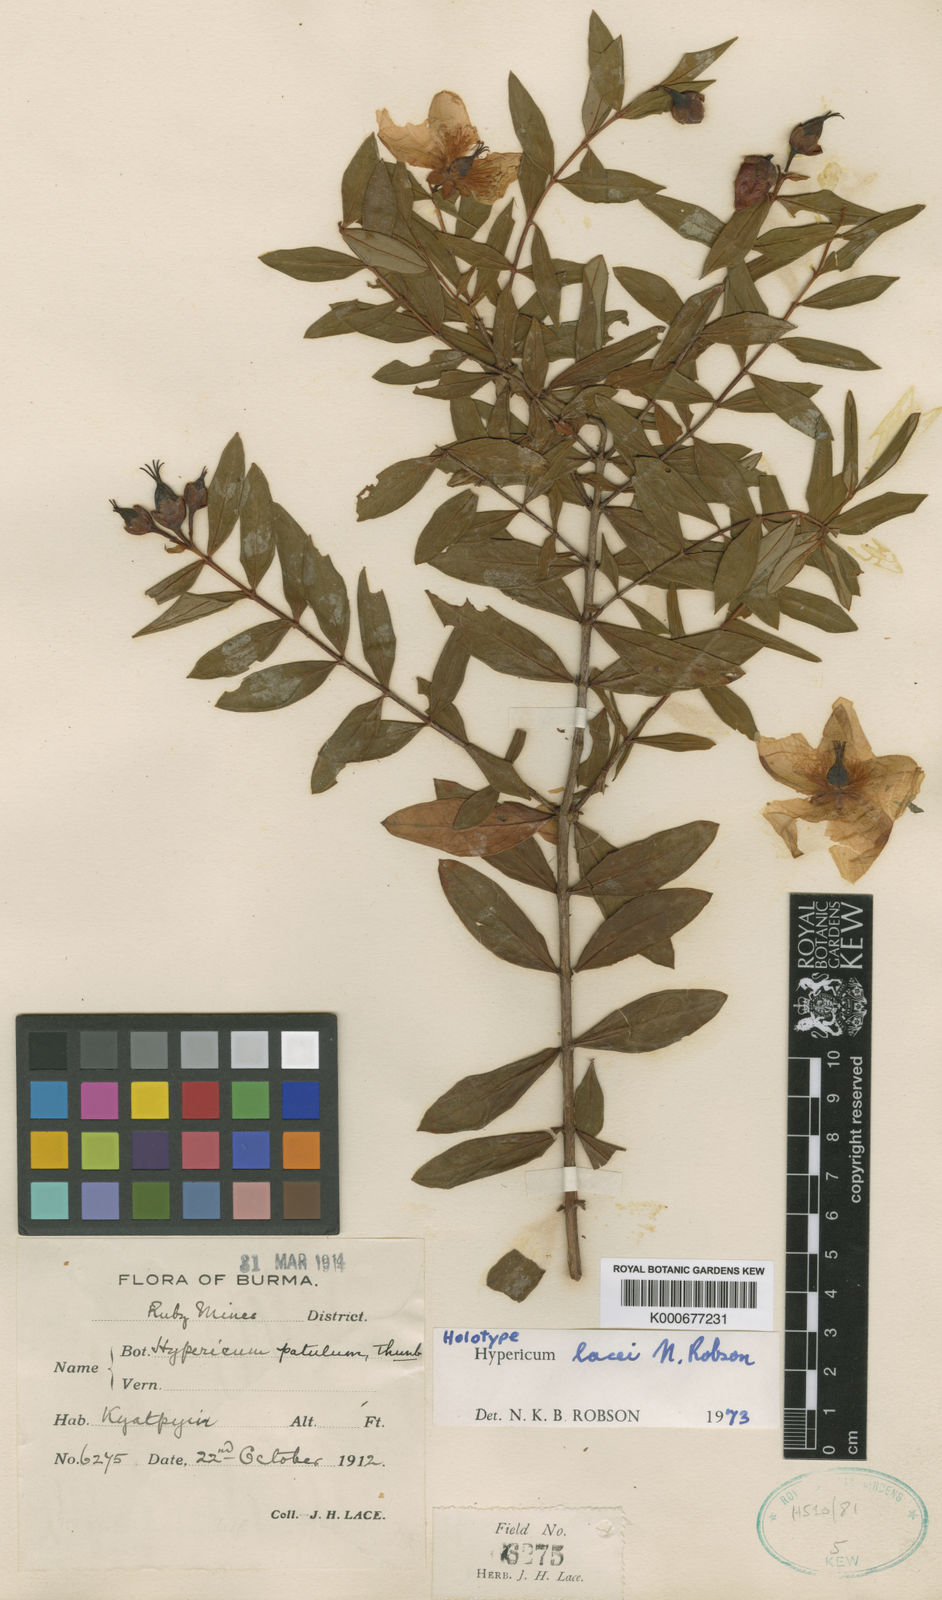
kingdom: Plantae
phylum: Tracheophyta
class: Magnoliopsida
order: Malpighiales
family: Hypericaceae
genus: Hypericum
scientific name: Hypericum lacei
